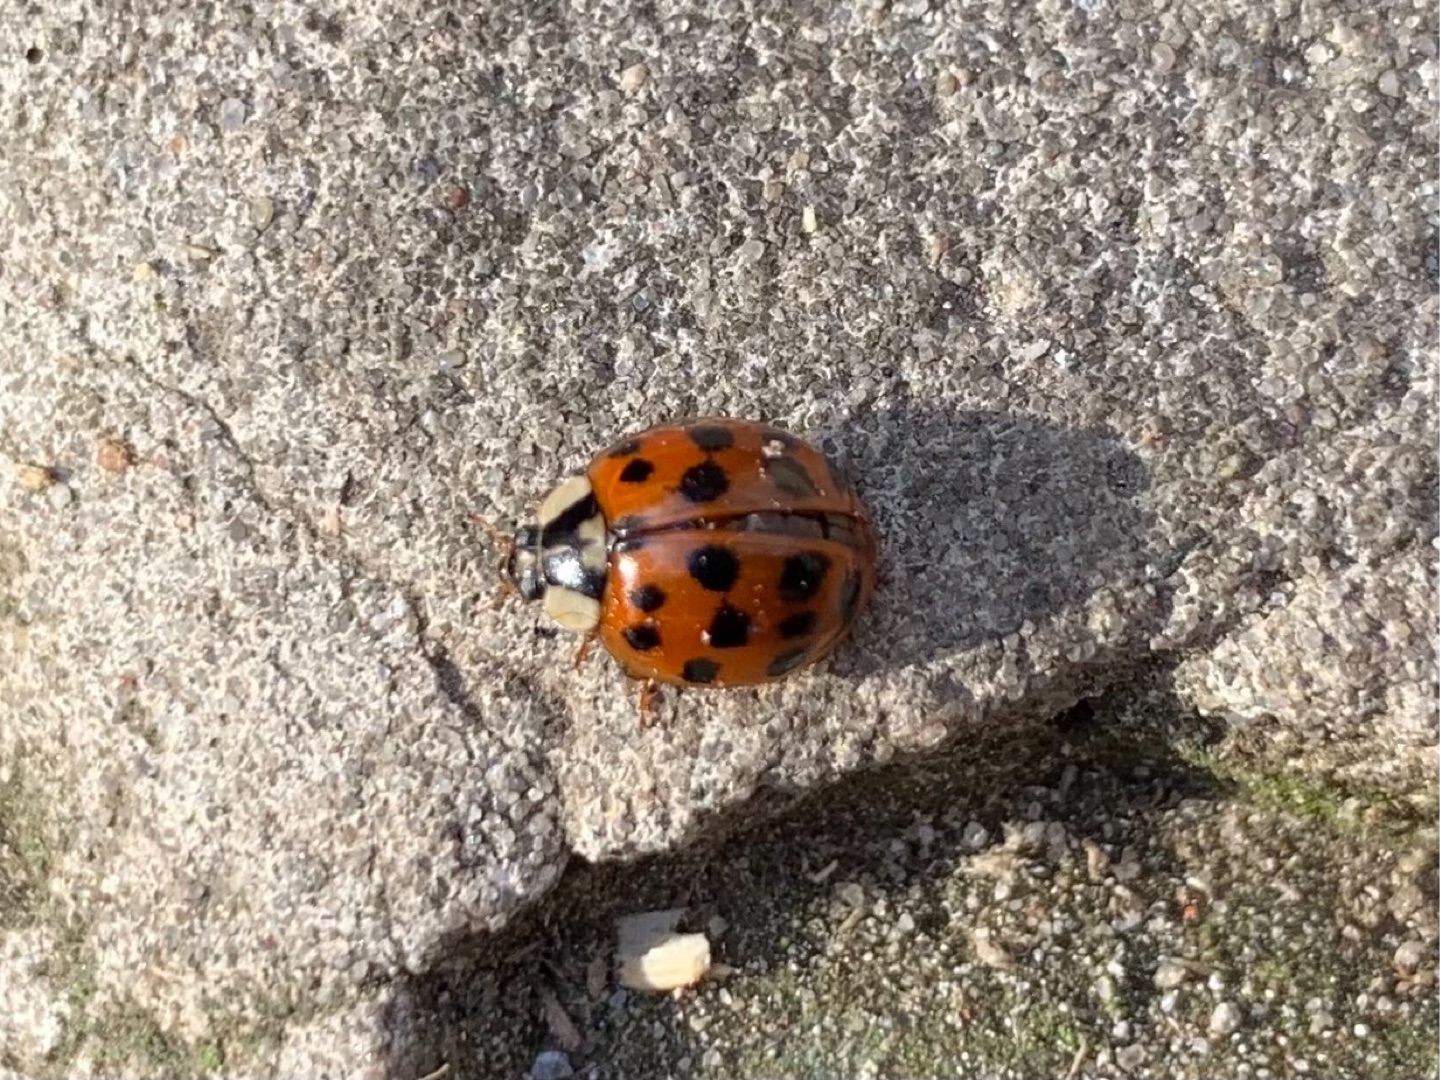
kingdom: Animalia
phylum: Arthropoda
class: Insecta
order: Coleoptera
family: Coccinellidae
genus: Harmonia
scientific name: Harmonia axyridis
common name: Harlekinmariehøne
